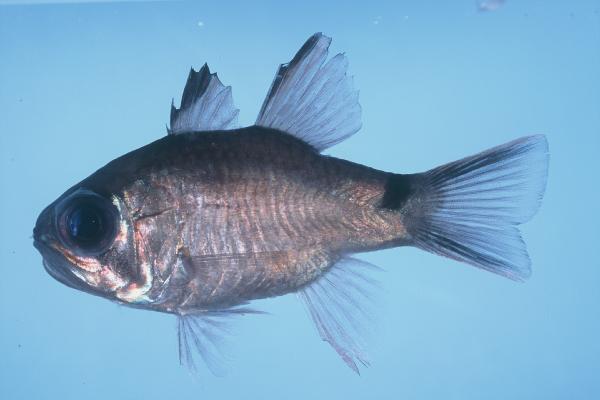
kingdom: Animalia
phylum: Chordata
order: Perciformes
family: Apogonidae
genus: Nectamia
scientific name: Nectamia savayensis
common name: Samoan cardinalfish
